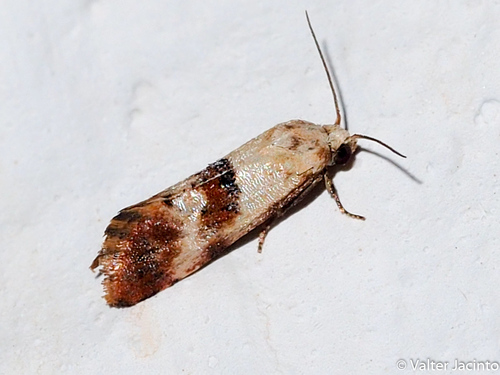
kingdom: Animalia
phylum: Arthropoda
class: Insecta
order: Lepidoptera
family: Tortricidae
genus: Cochylis
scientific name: Cochylis epilinana
